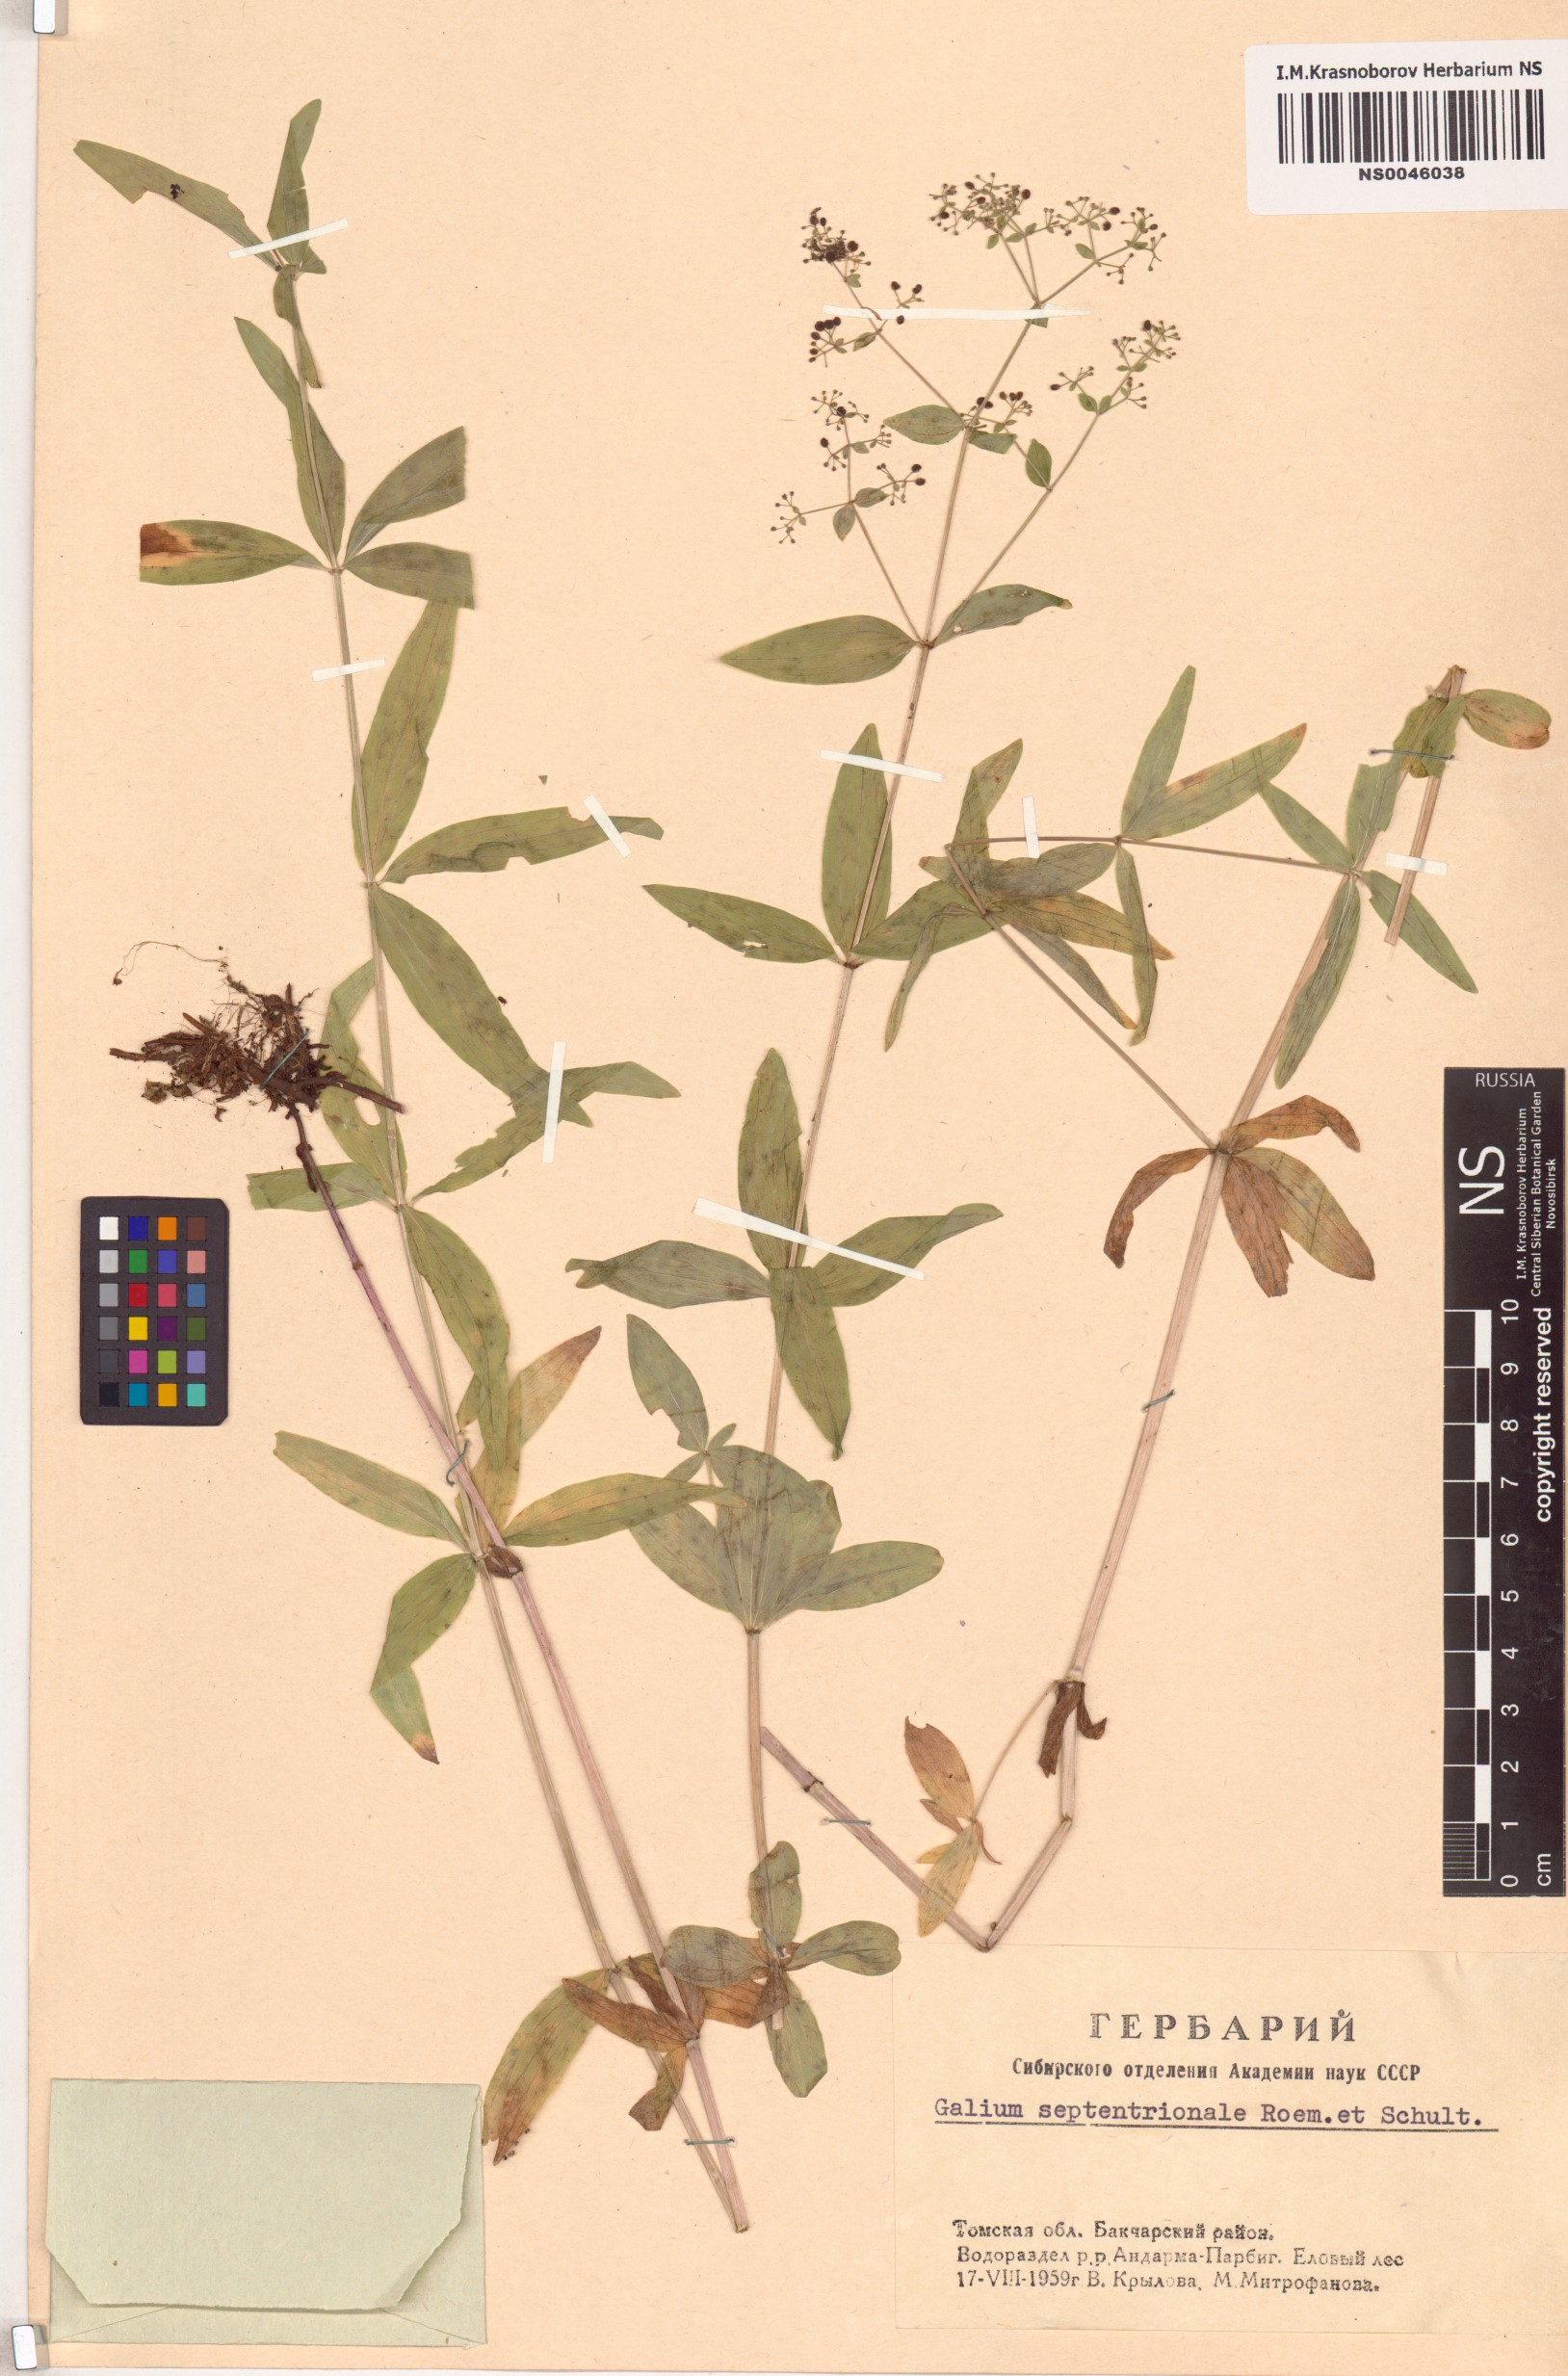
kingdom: Plantae
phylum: Tracheophyta
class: Magnoliopsida
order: Gentianales
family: Rubiaceae
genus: Galium
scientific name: Galium boreale
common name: Northern bedstraw
